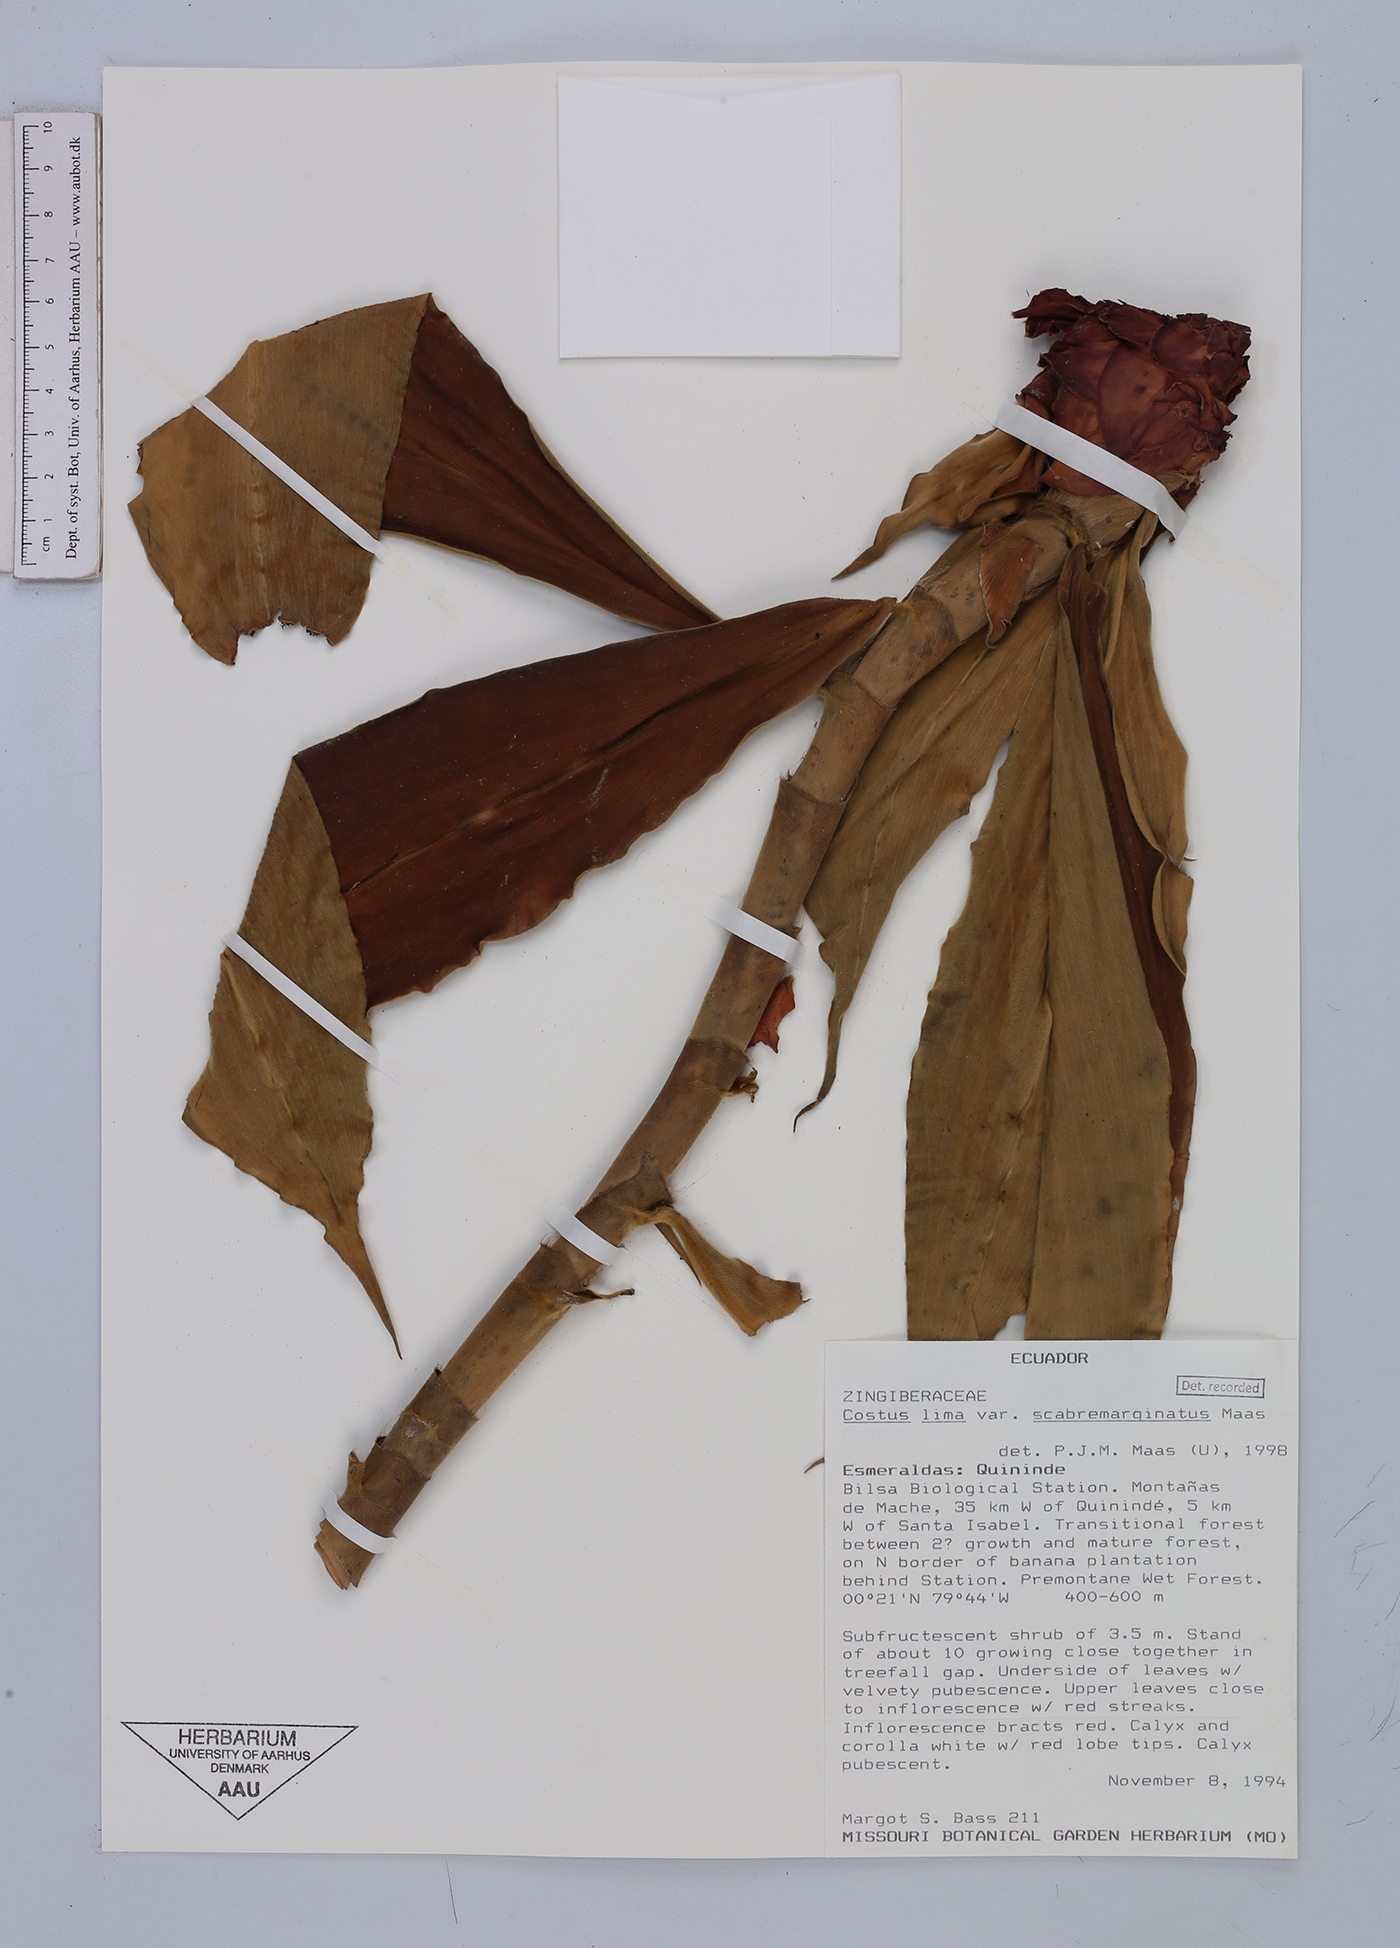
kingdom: Plantae
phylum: Tracheophyta
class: Liliopsida
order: Zingiberales
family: Costaceae
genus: Costus
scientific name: Costus lima
